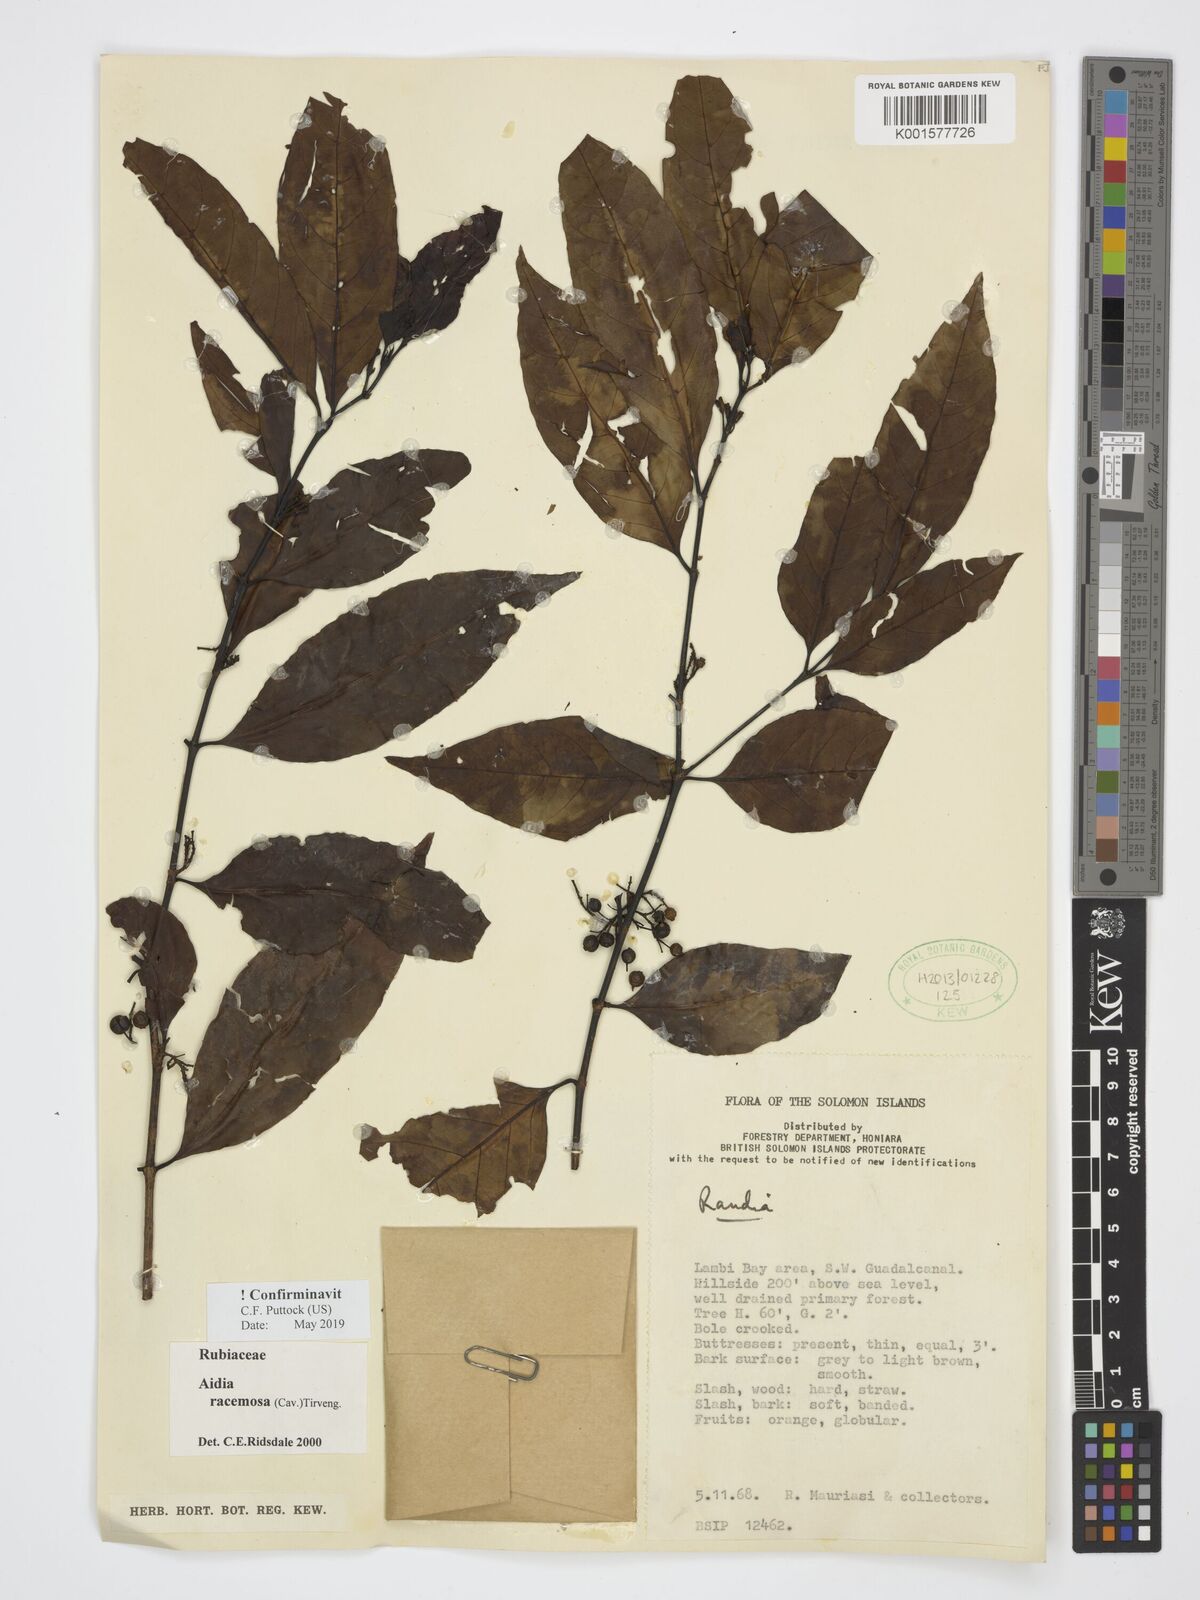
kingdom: Plantae
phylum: Tracheophyta
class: Magnoliopsida
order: Gentianales
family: Rubiaceae
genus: Aidia
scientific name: Aidia racemosa
